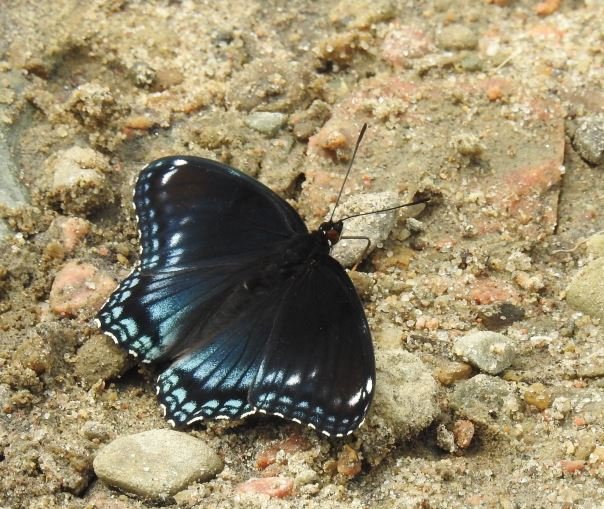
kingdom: Animalia
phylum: Arthropoda
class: Insecta
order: Lepidoptera
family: Nymphalidae
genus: Limenitis
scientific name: Limenitis astyanax
